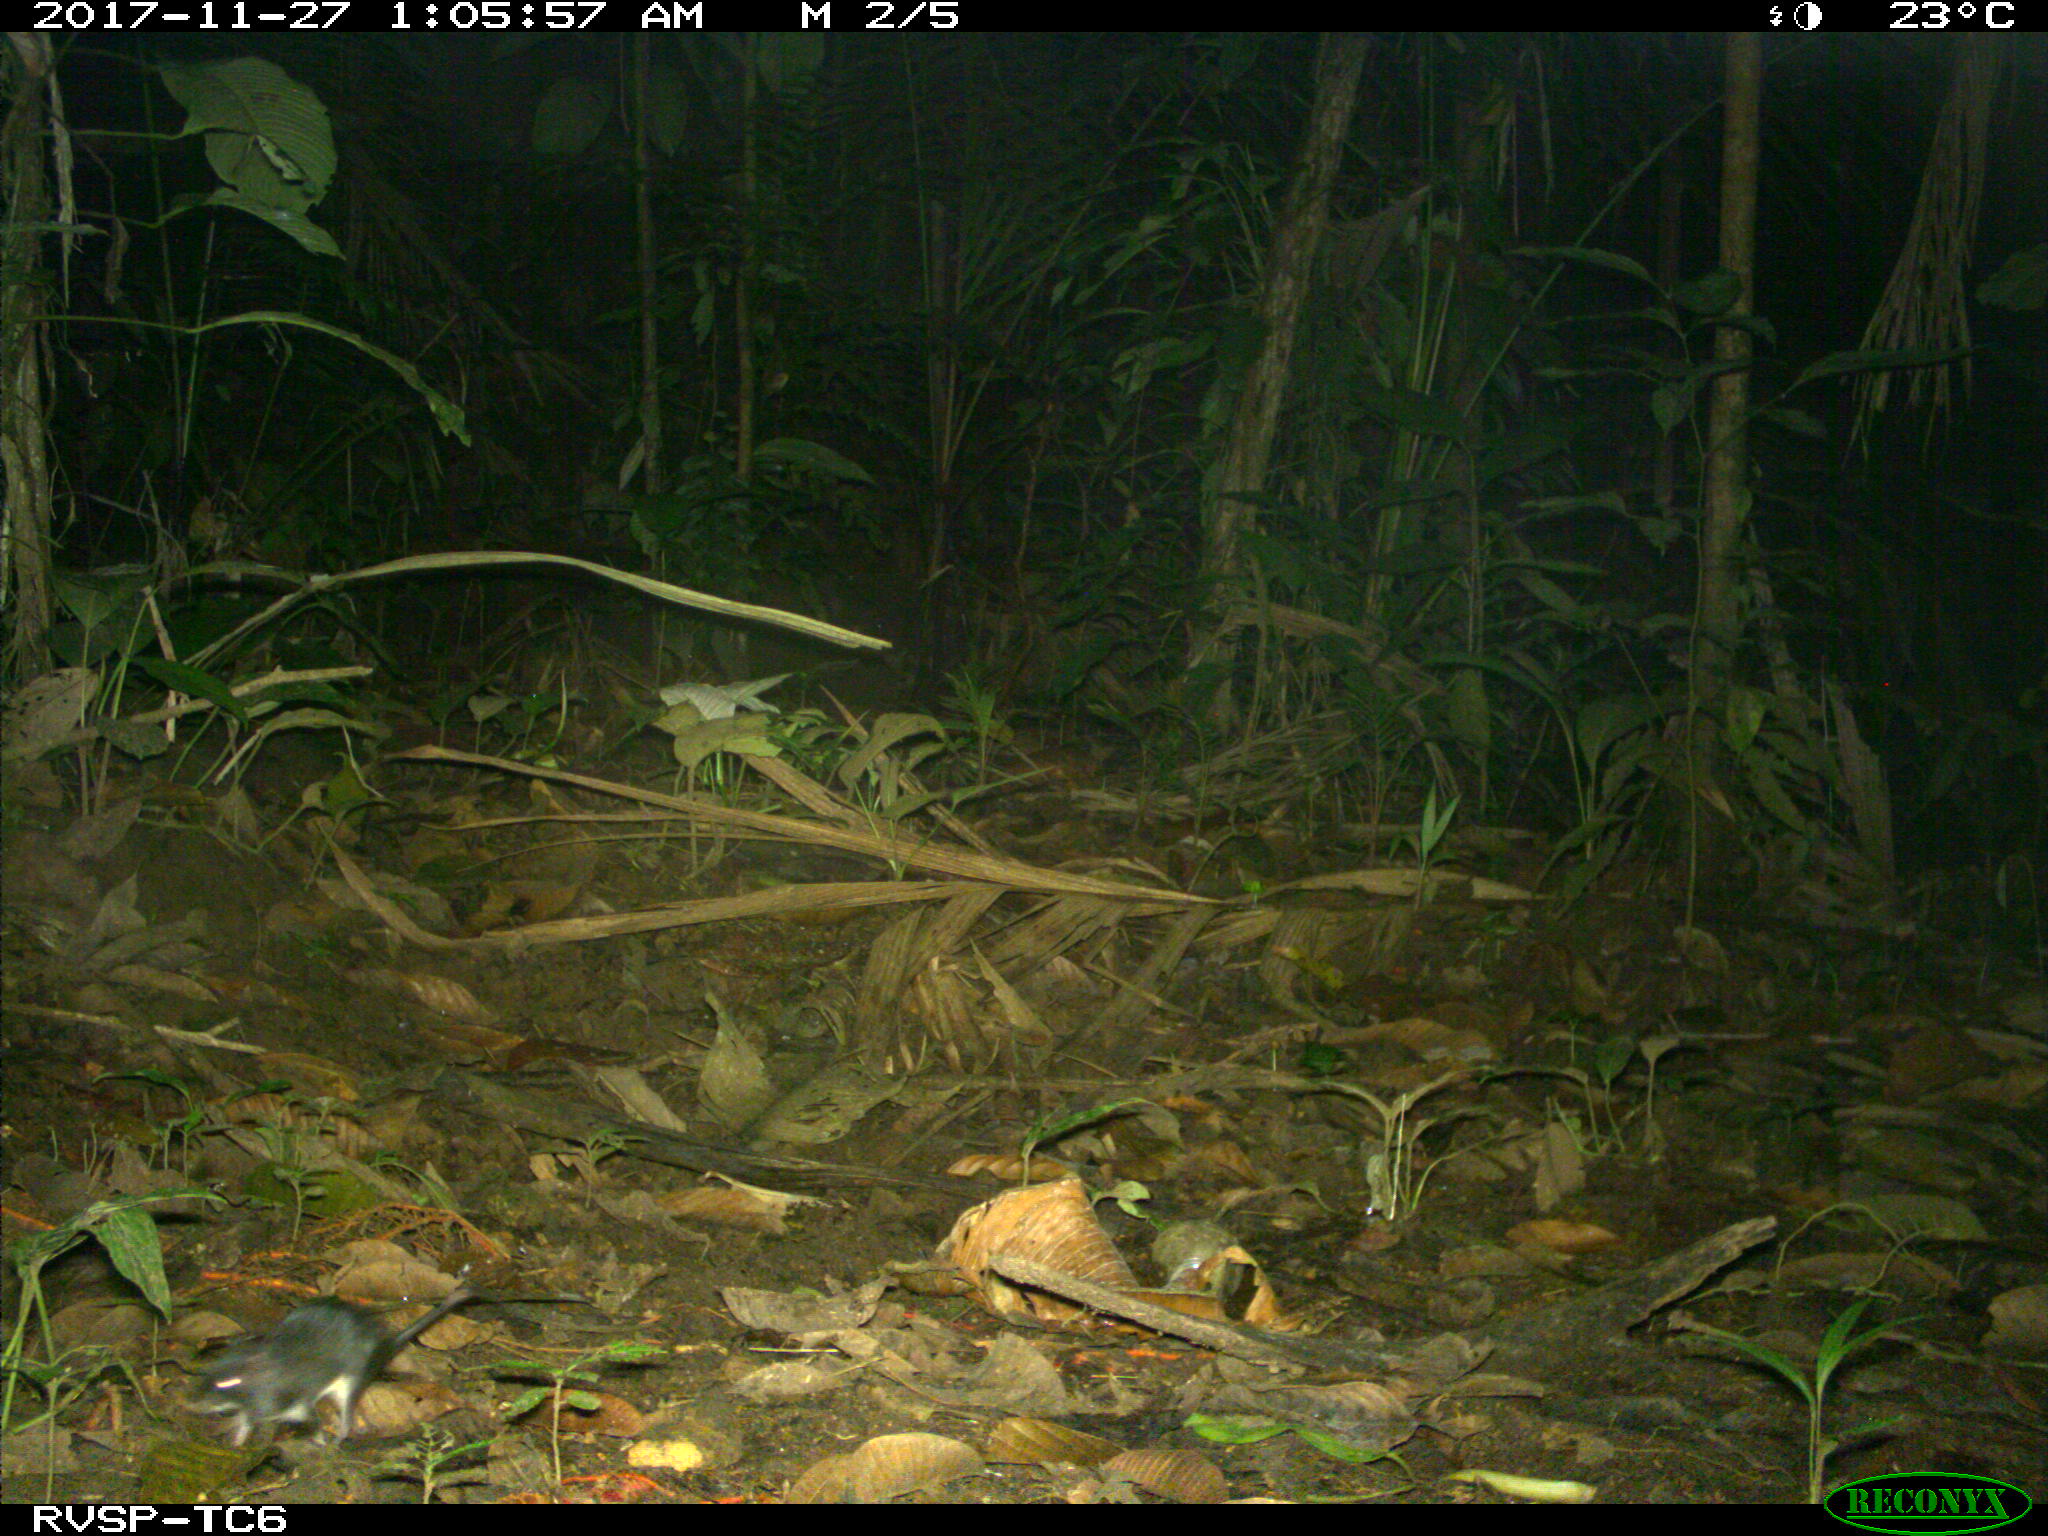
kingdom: Animalia
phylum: Chordata
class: Mammalia
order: Rodentia
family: Echimyidae
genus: Proechimys
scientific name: Proechimys
